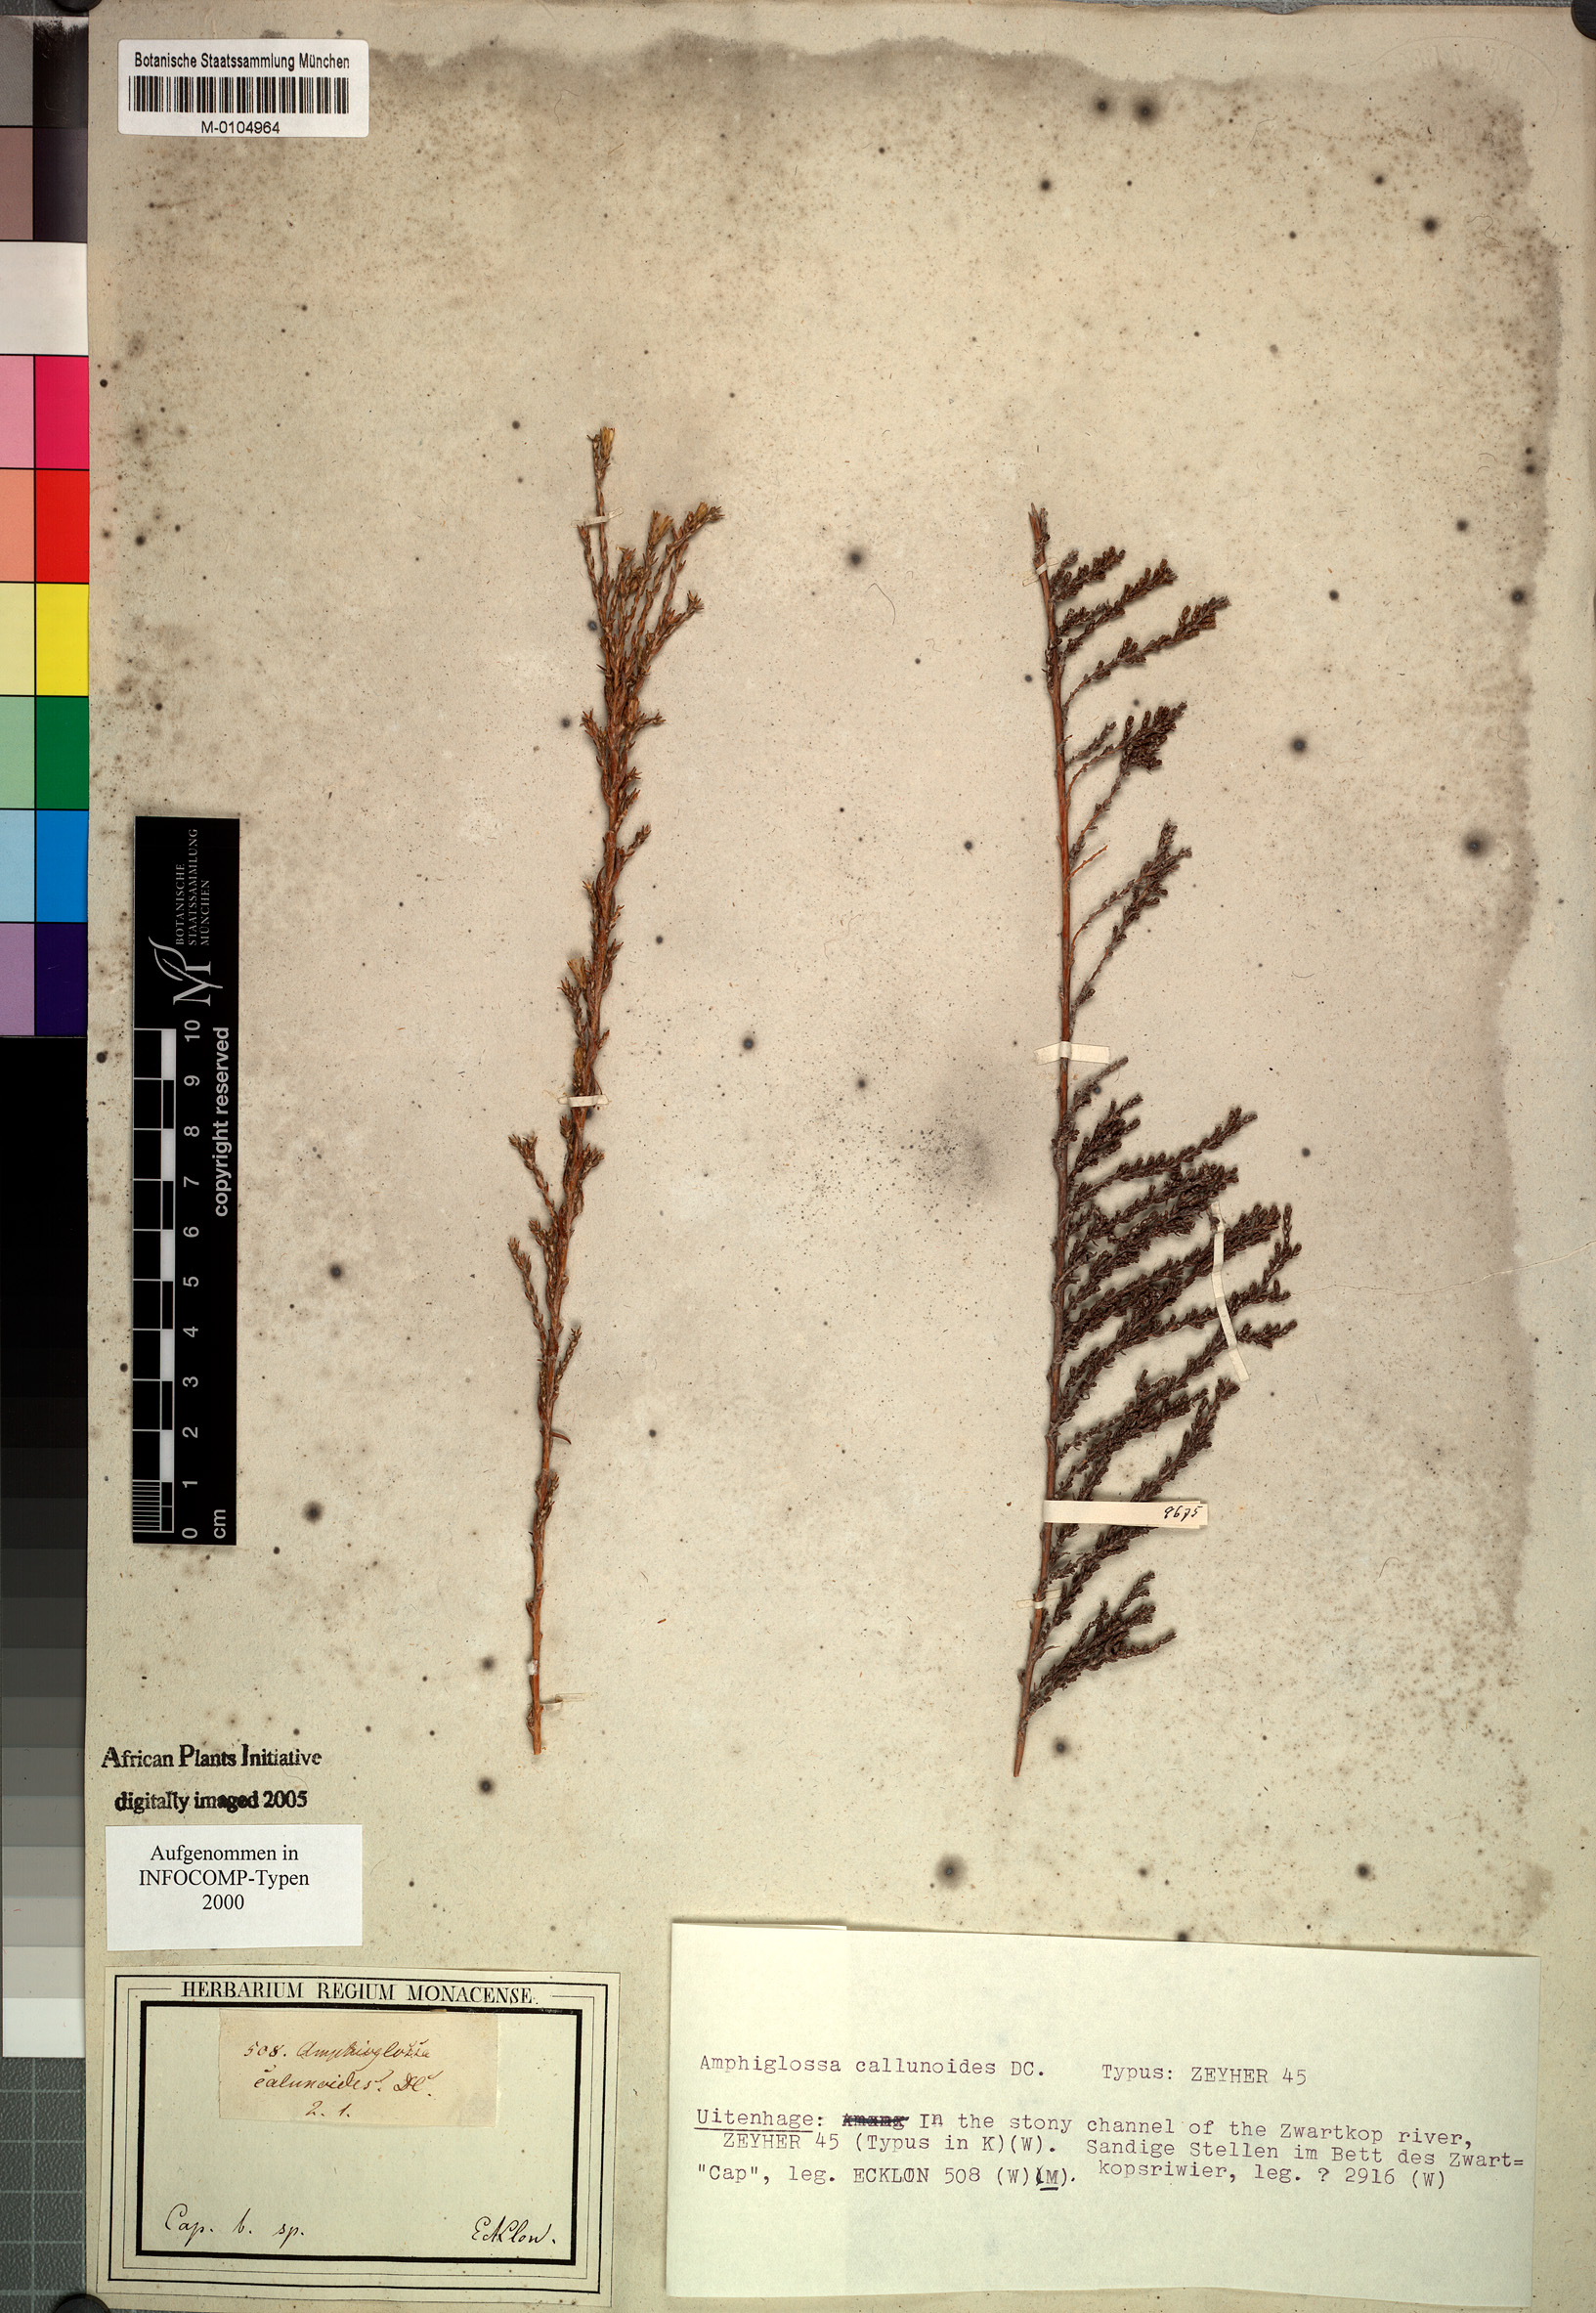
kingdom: Plantae
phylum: Tracheophyta
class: Magnoliopsida
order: Asterales
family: Asteraceae
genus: Amphiglossa
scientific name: Amphiglossa callunoides
